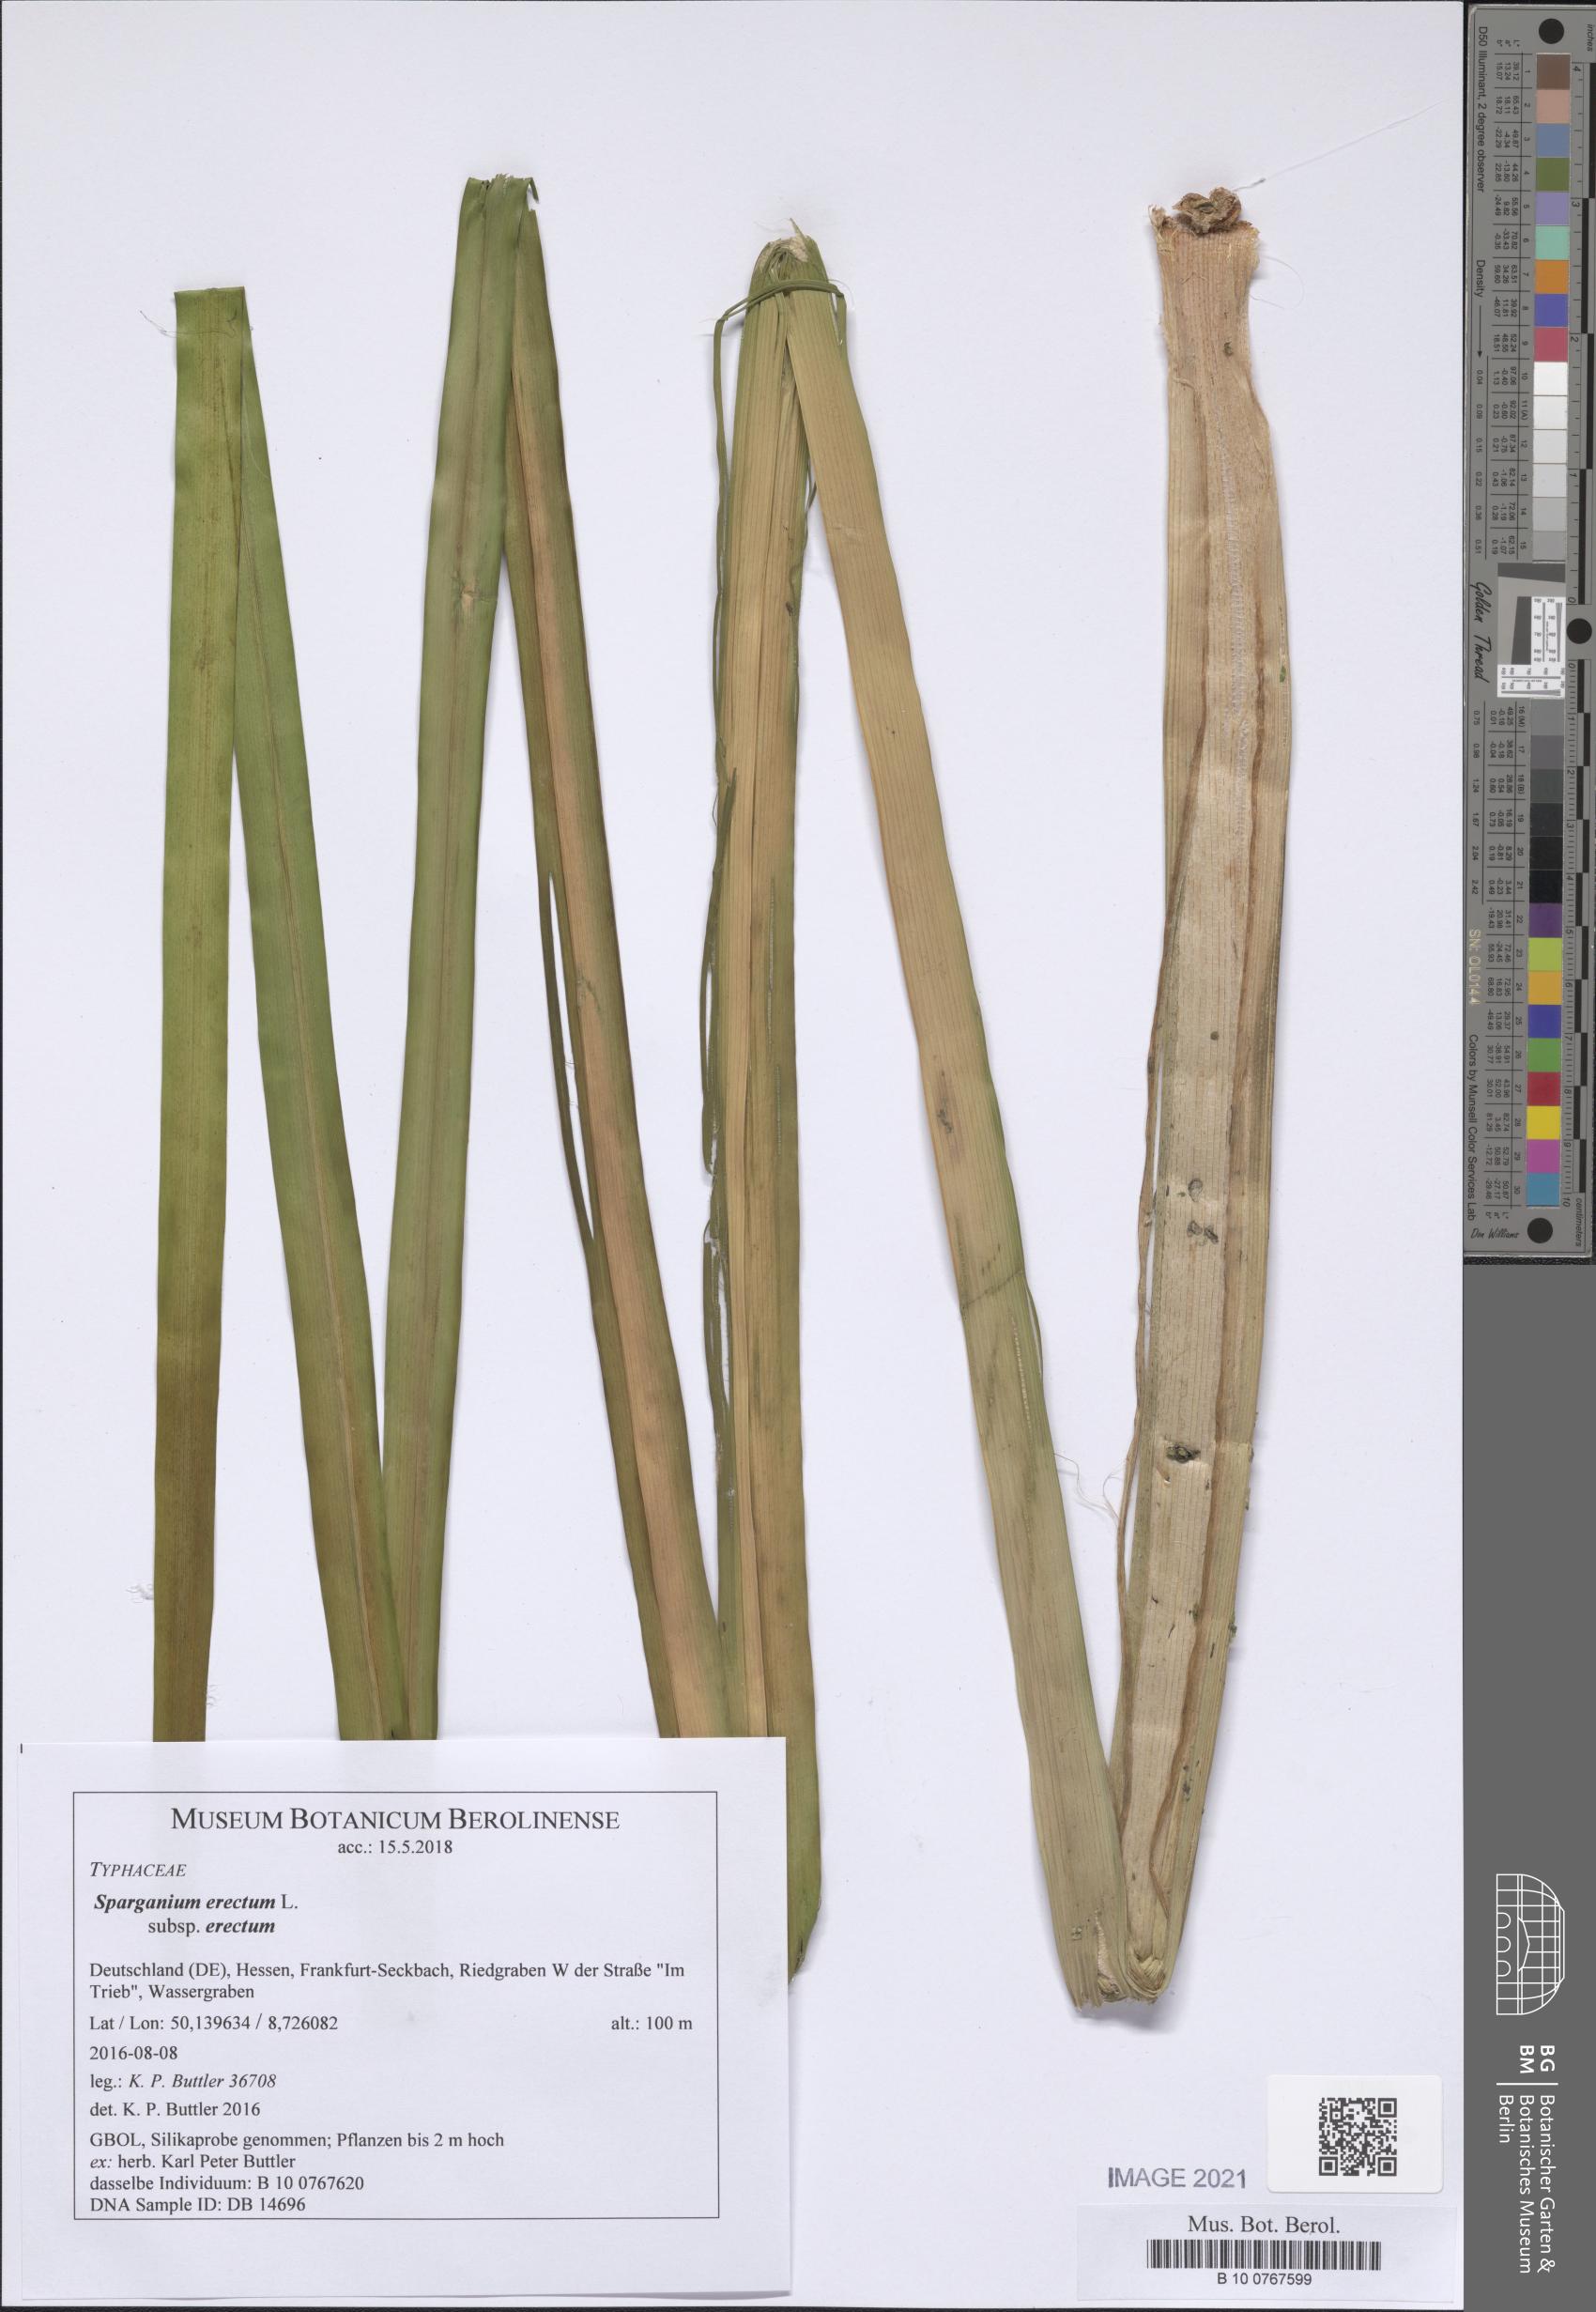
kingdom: Plantae
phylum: Tracheophyta
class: Liliopsida
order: Poales
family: Typhaceae
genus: Sparganium
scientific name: Sparganium erectum
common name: Branched bur-reed
